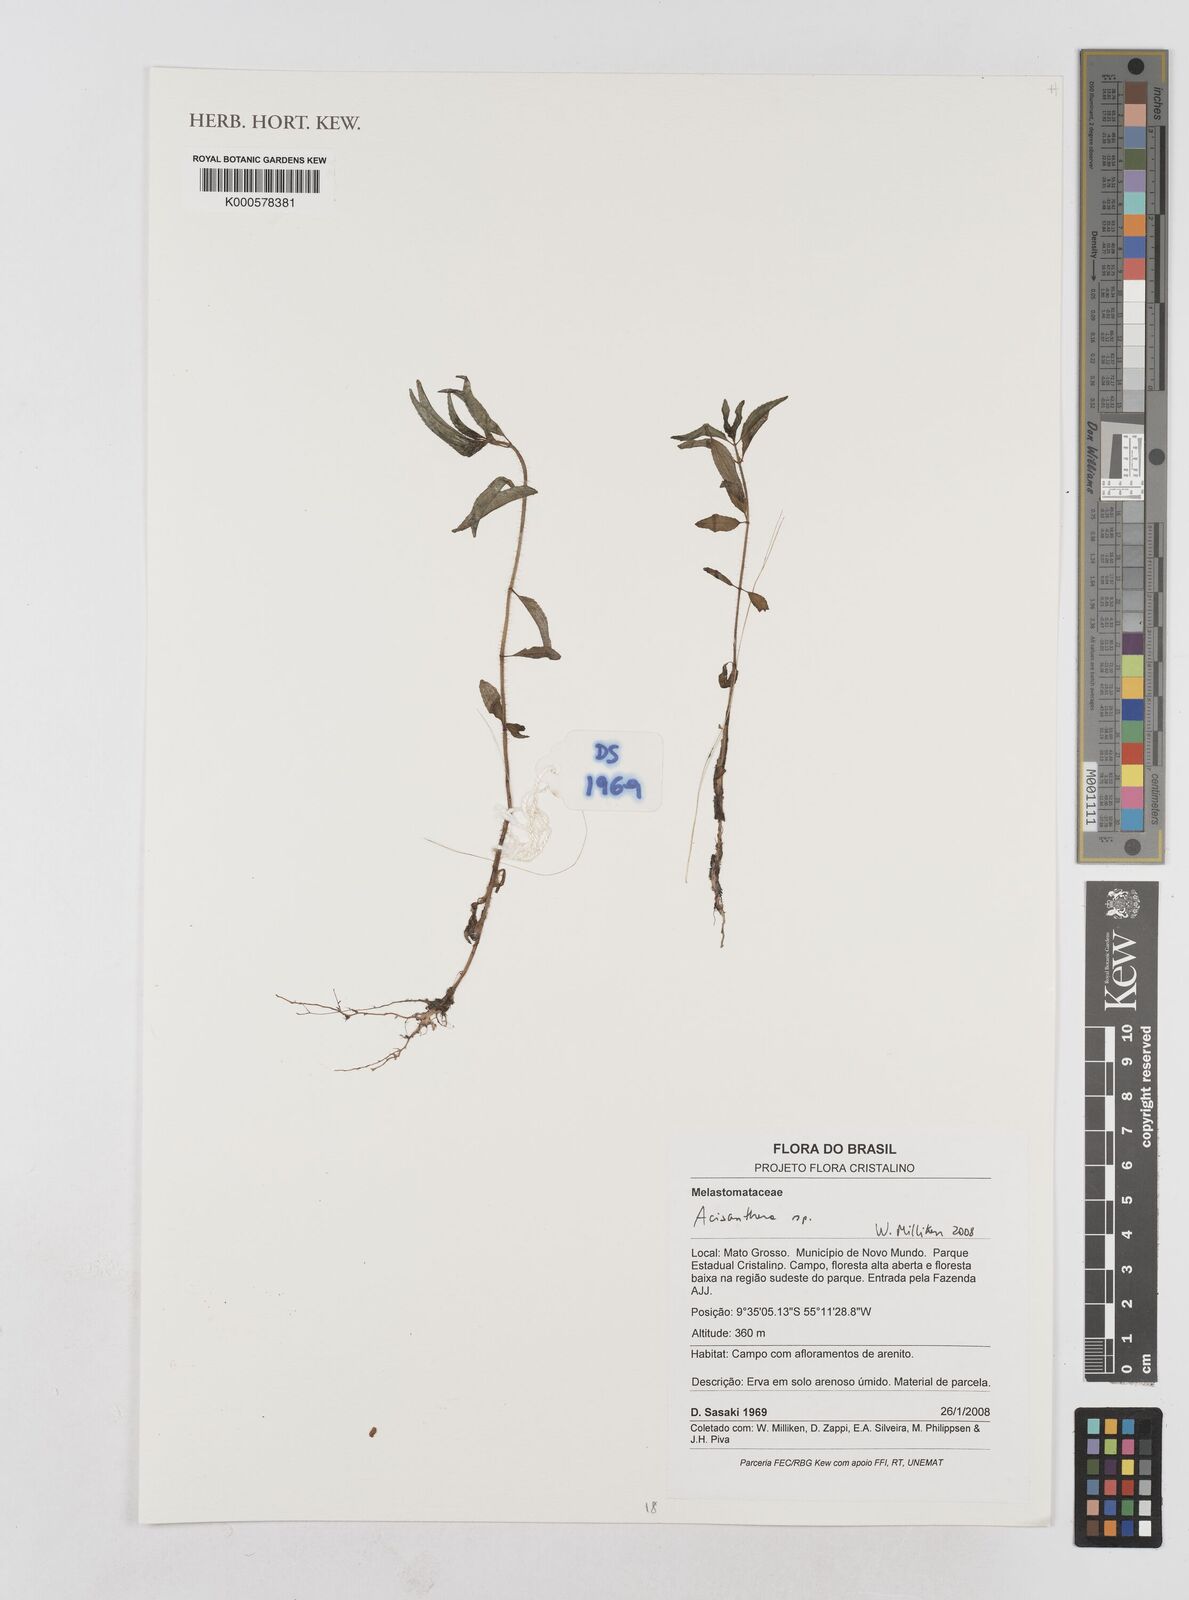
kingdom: Plantae
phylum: Tracheophyta
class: Magnoliopsida
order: Myrtales
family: Melastomataceae
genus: Acisanthera
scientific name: Acisanthera
